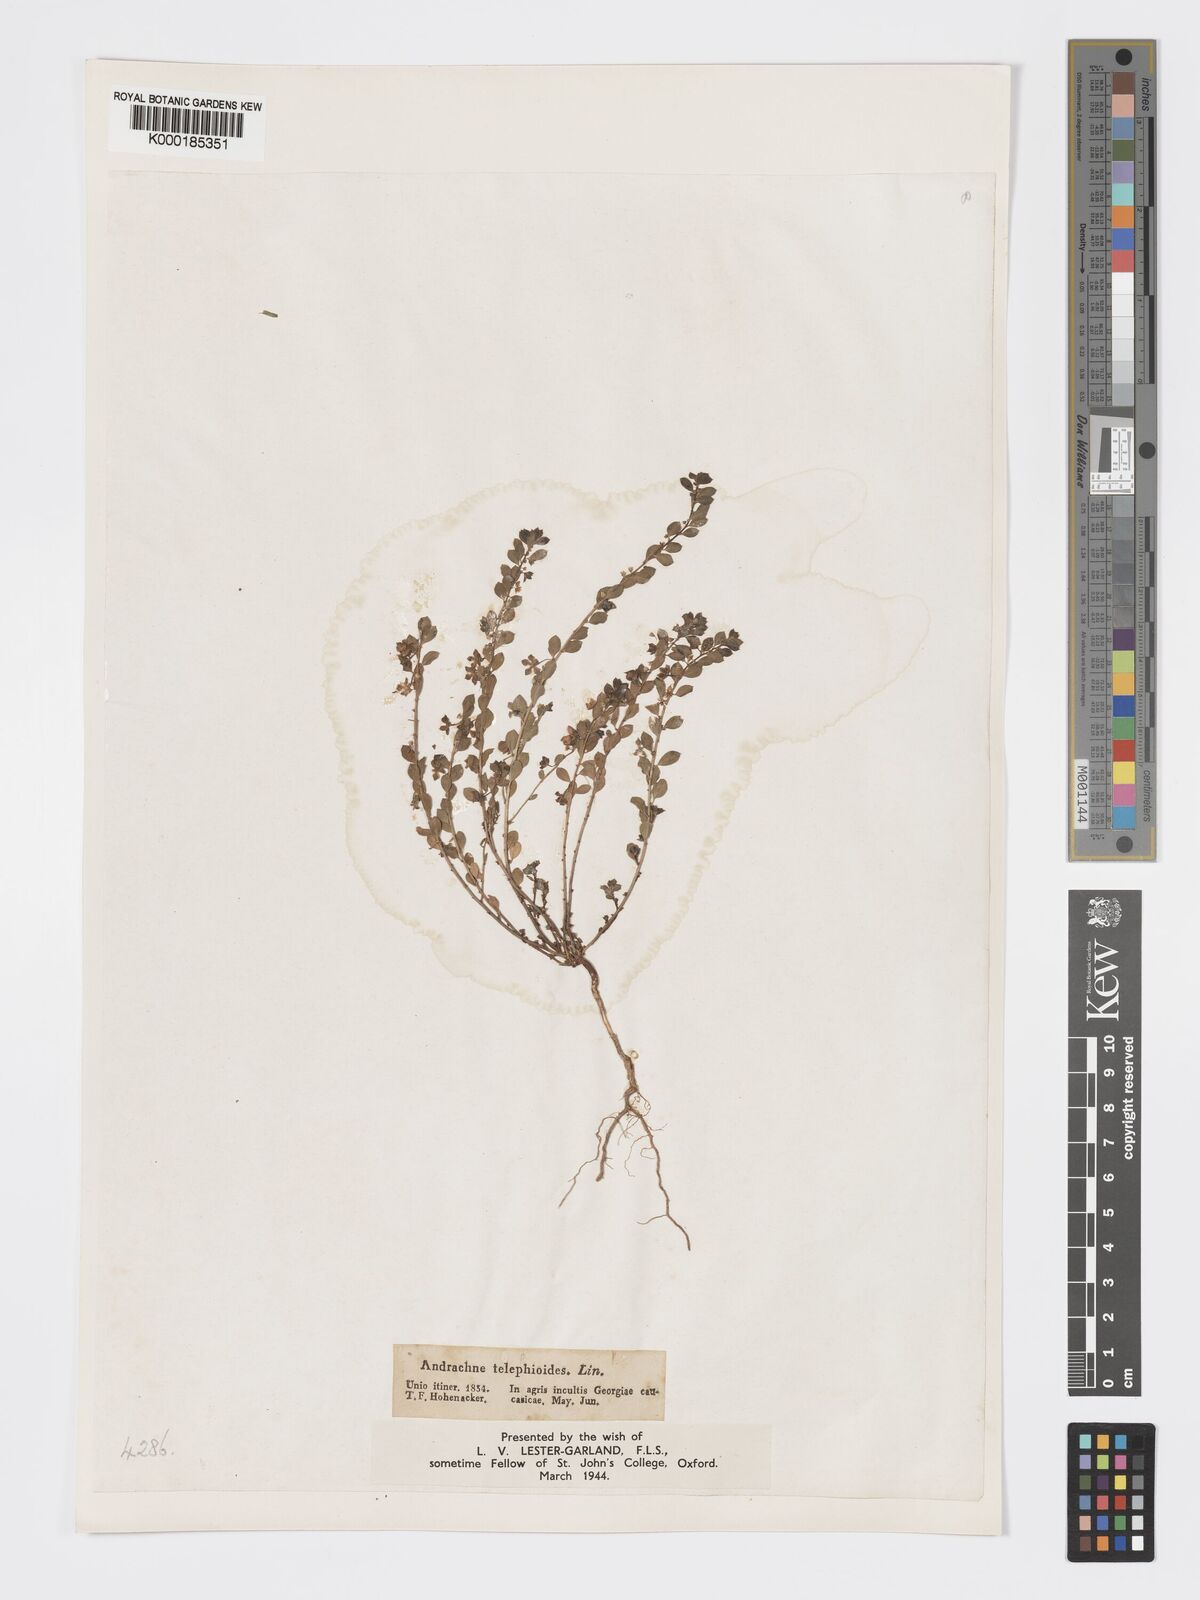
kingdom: Plantae
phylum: Tracheophyta
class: Magnoliopsida
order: Malpighiales
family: Phyllanthaceae
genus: Andrachne
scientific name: Andrachne telephioides
